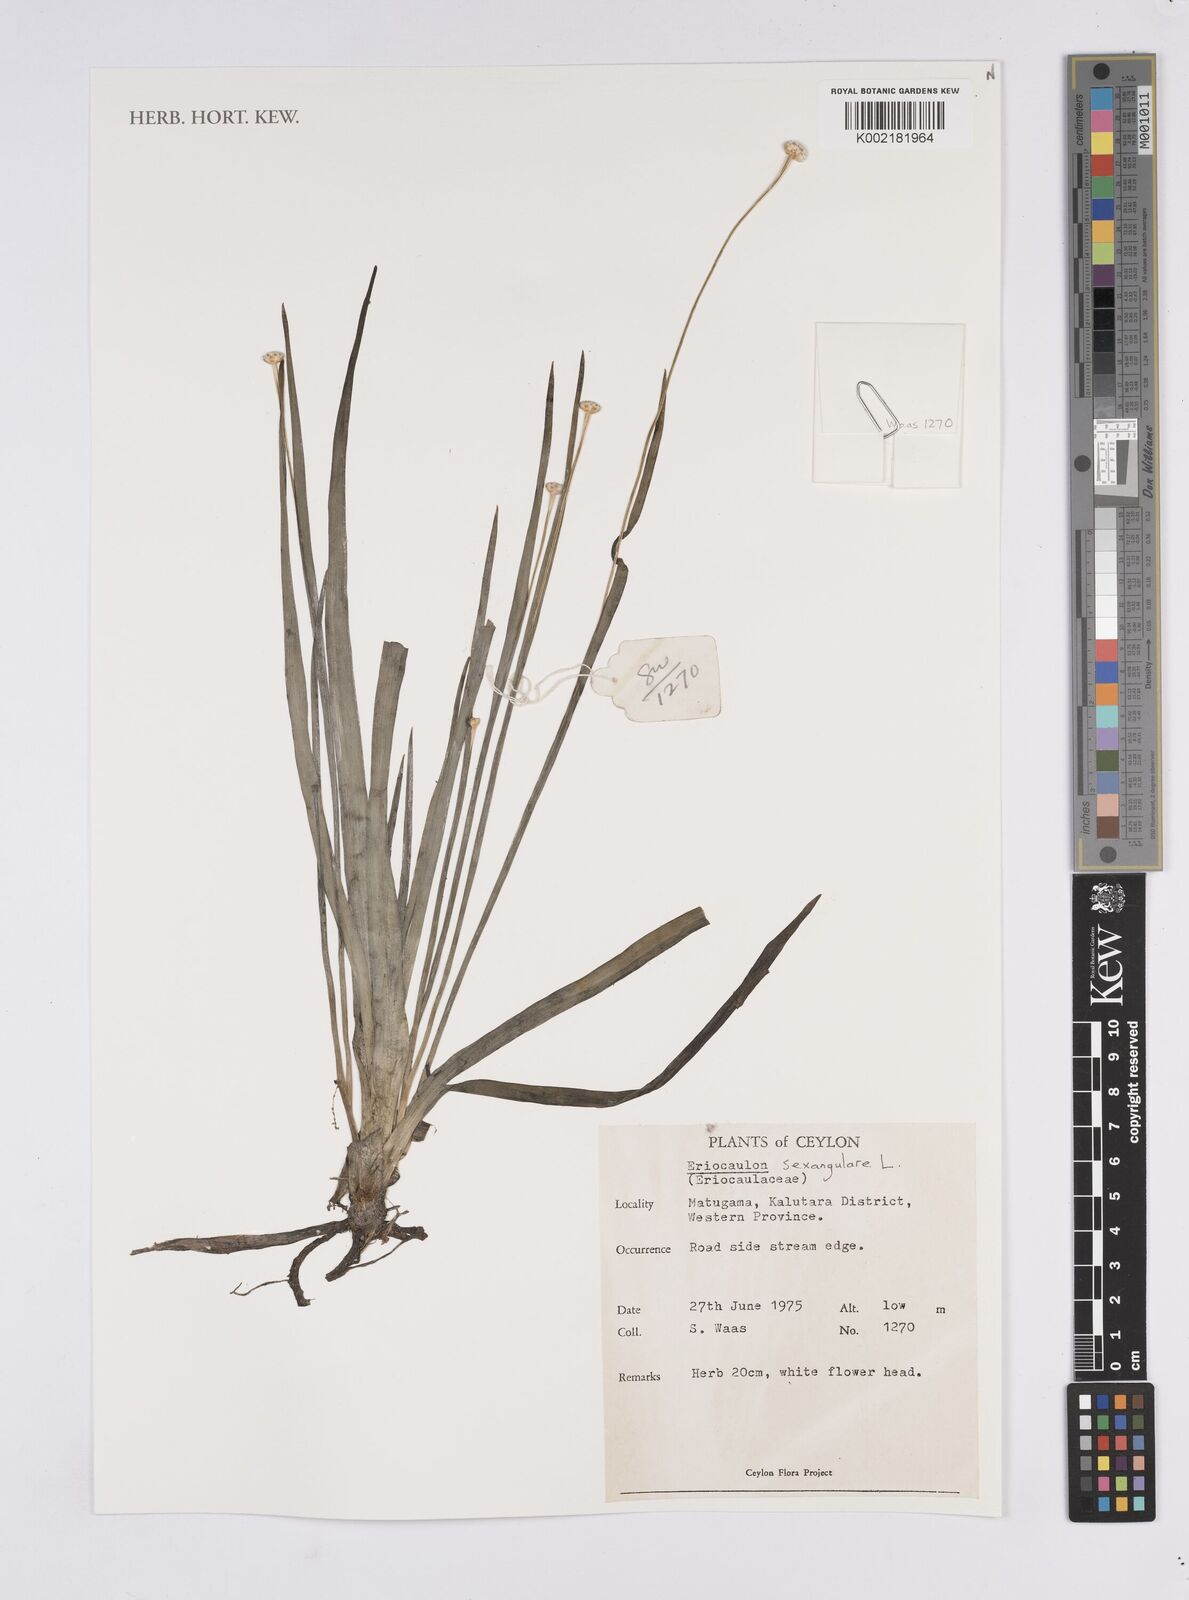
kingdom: Plantae
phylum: Tracheophyta
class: Liliopsida
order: Poales
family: Eriocaulaceae
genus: Eriocaulon
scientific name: Eriocaulon sexangulare
